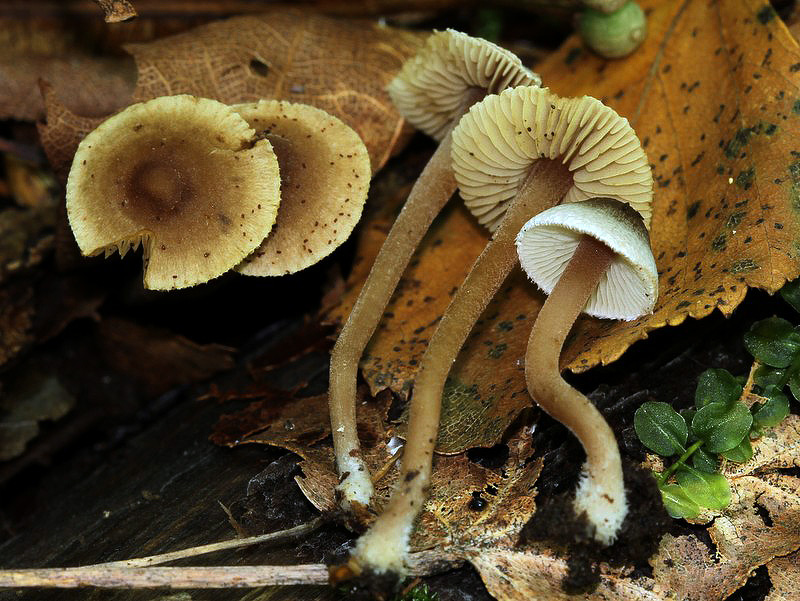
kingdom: Fungi
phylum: Basidiomycota
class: Agaricomycetes
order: Agaricales
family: Inocybaceae
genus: Inocybe
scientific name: Inocybe petiginosa
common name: liden trævlhat
